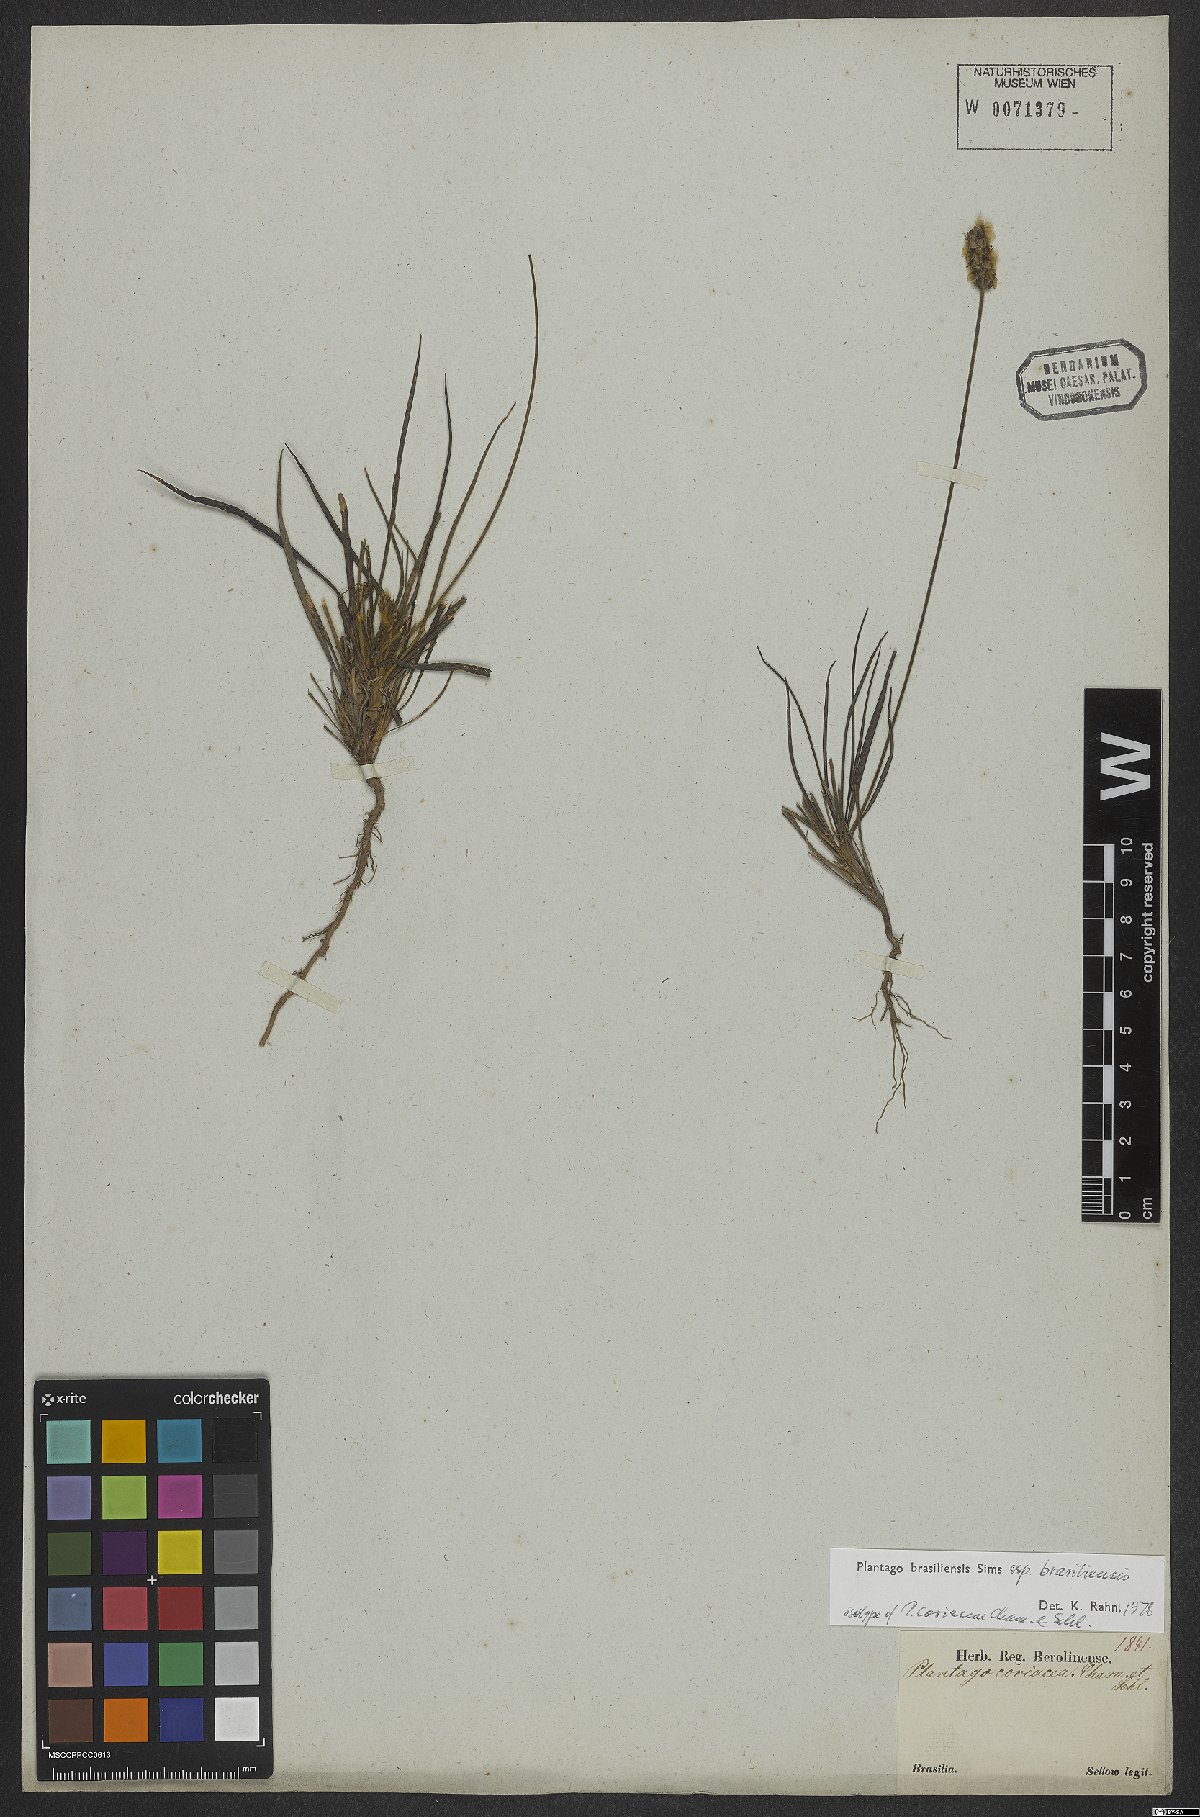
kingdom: Plantae
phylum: Tracheophyta
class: Magnoliopsida
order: Lamiales
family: Plantaginaceae
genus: Plantago
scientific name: Plantago brasiliensis
